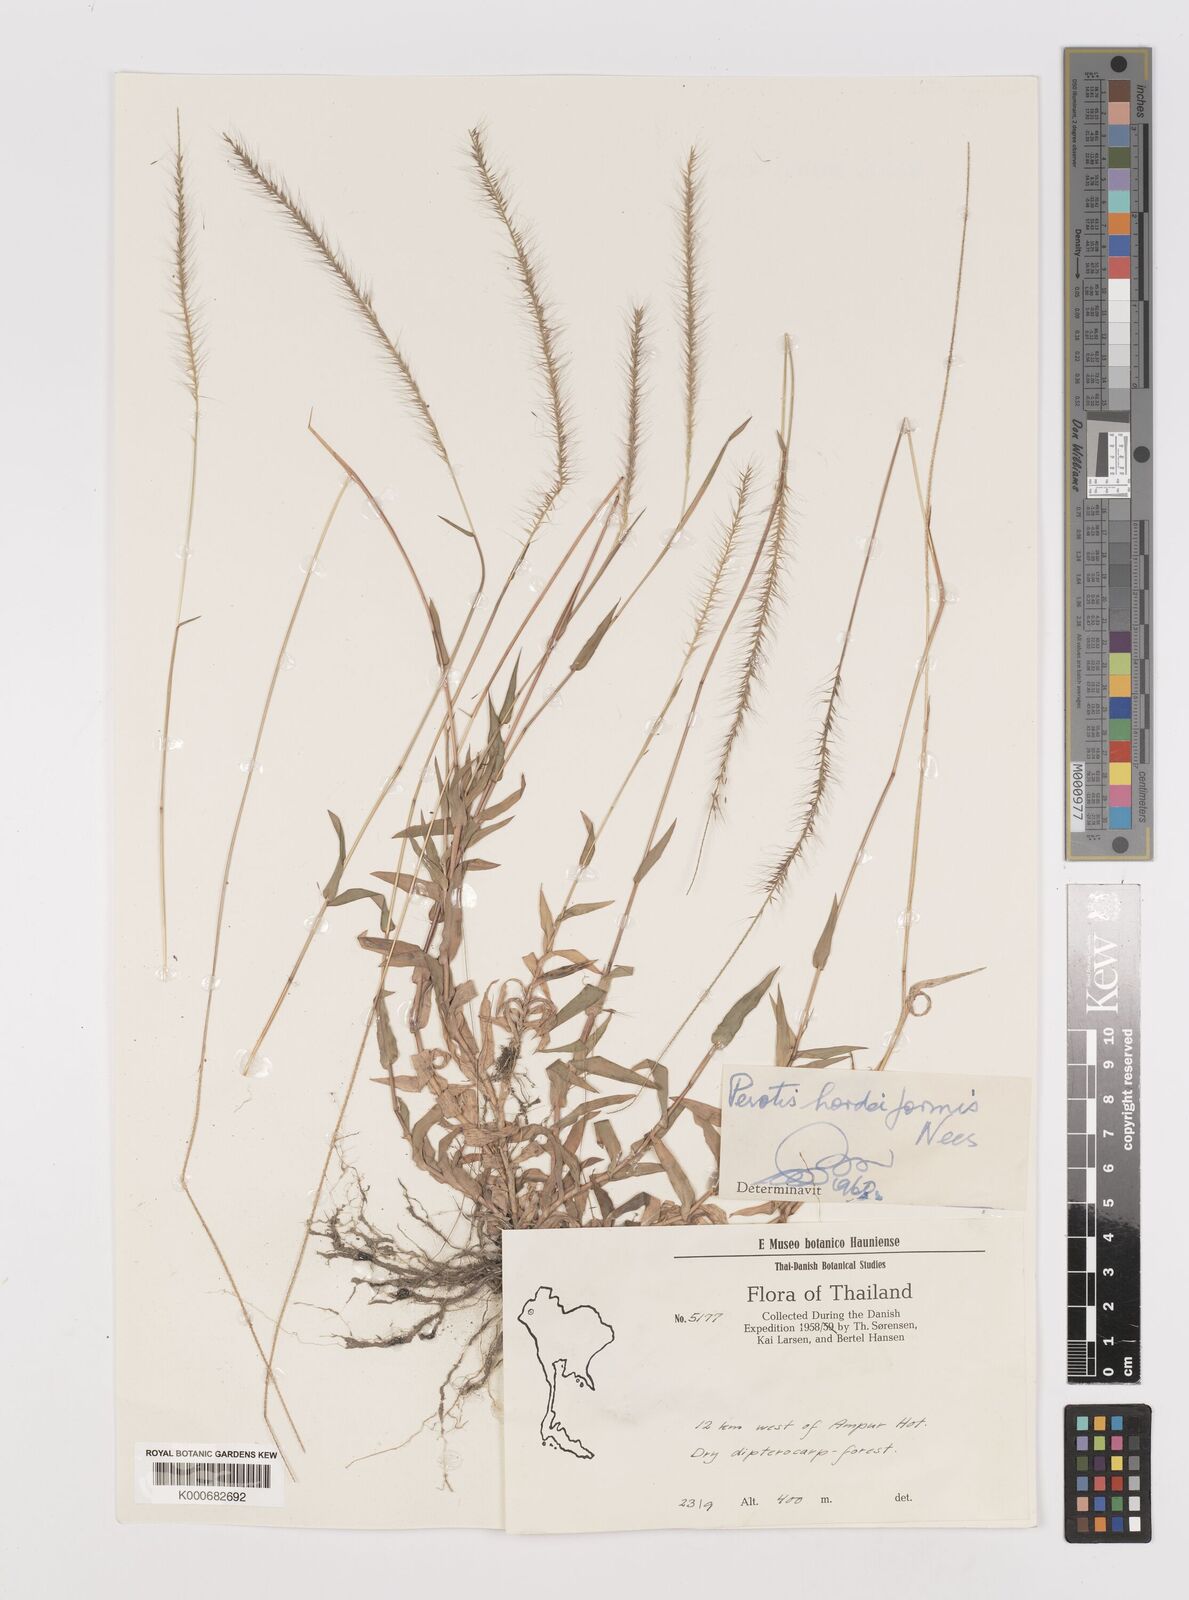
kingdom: Plantae
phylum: Tracheophyta
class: Liliopsida
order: Poales
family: Poaceae
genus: Perotis
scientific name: Perotis hordeiformis
